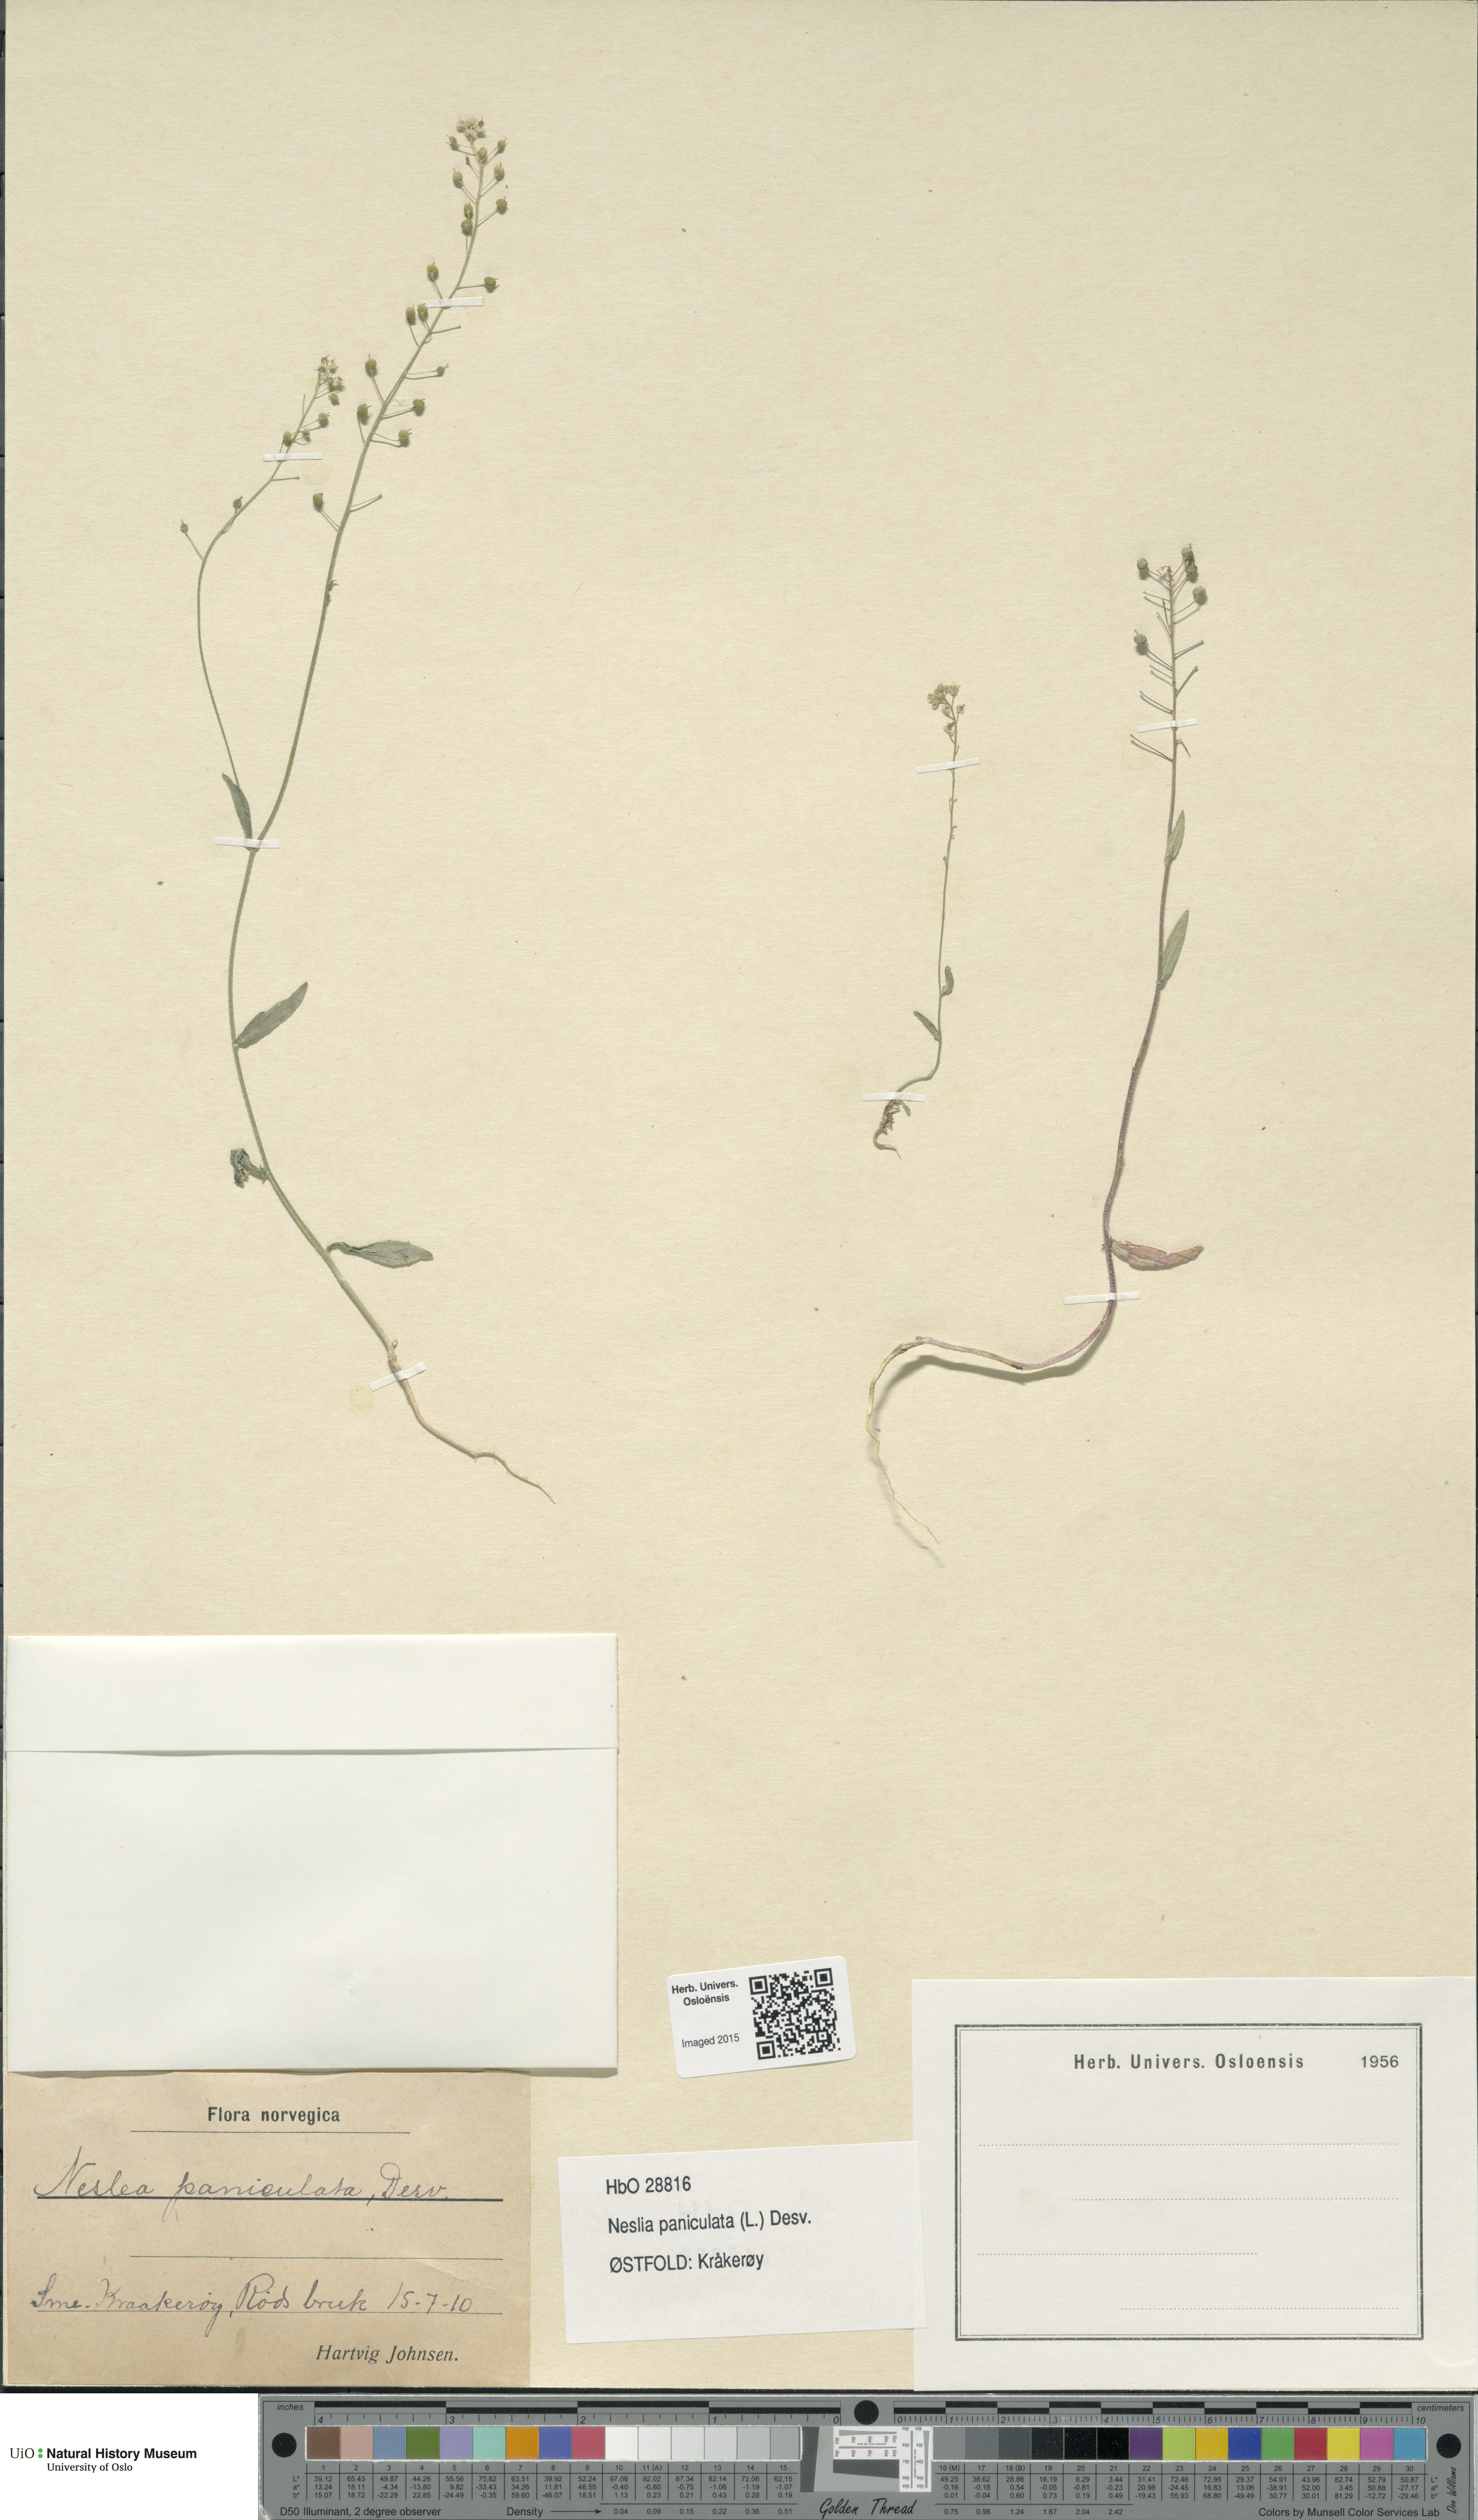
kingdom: Plantae
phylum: Tracheophyta
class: Magnoliopsida
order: Brassicales
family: Brassicaceae
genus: Neslia
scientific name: Neslia paniculata
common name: Ball mustard
